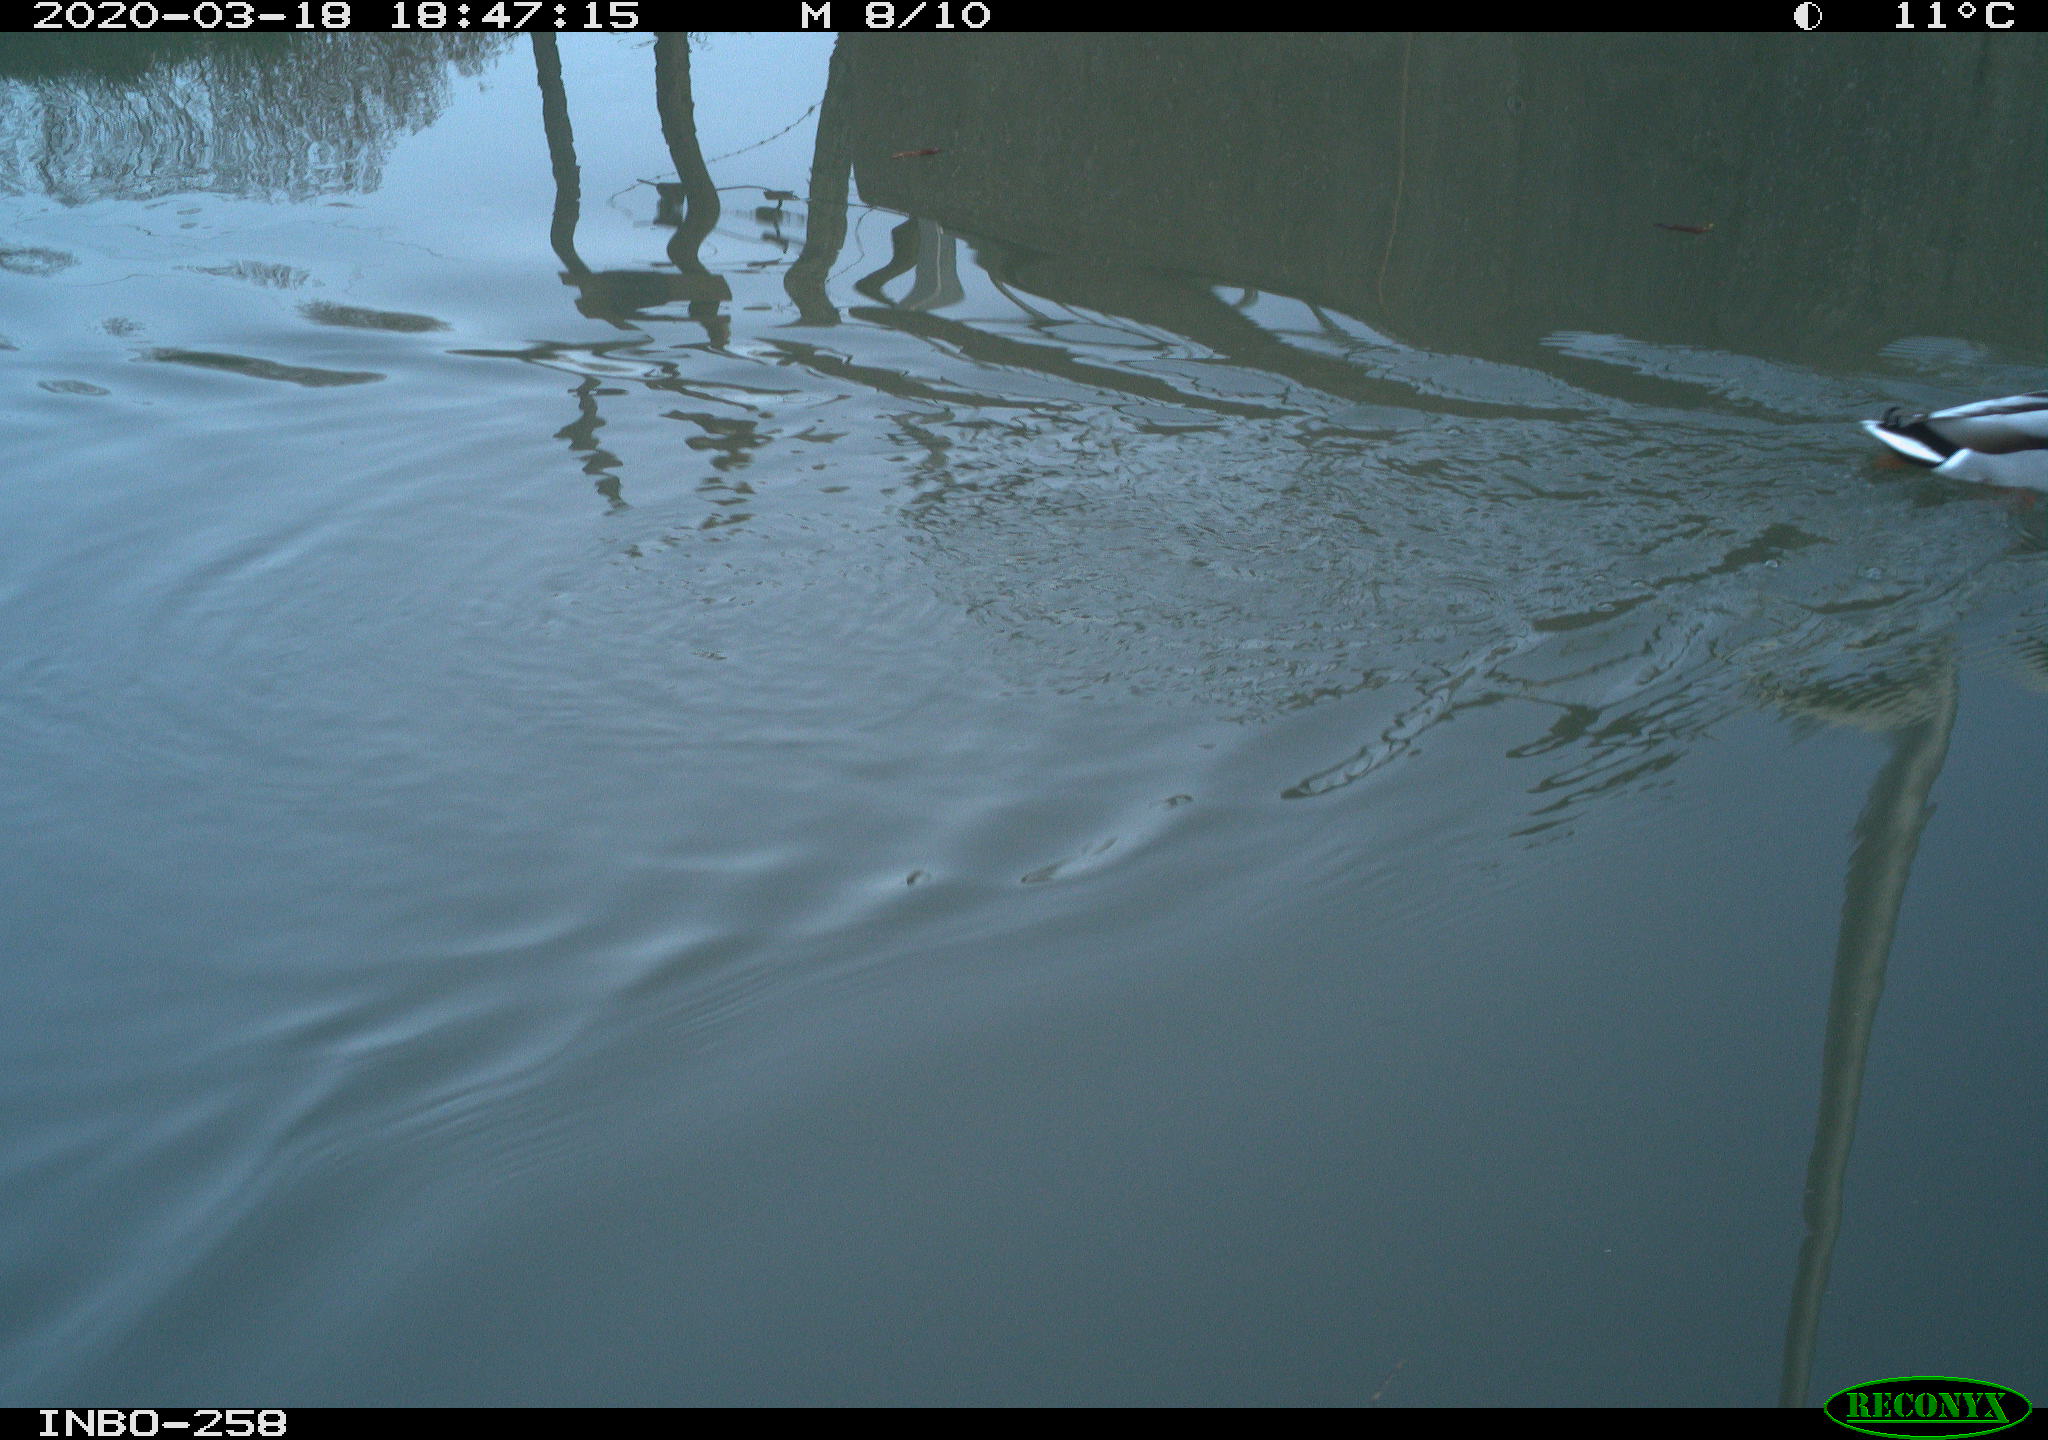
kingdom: Animalia
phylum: Chordata
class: Aves
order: Anseriformes
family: Anatidae
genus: Anas
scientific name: Anas platyrhynchos
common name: Mallard
